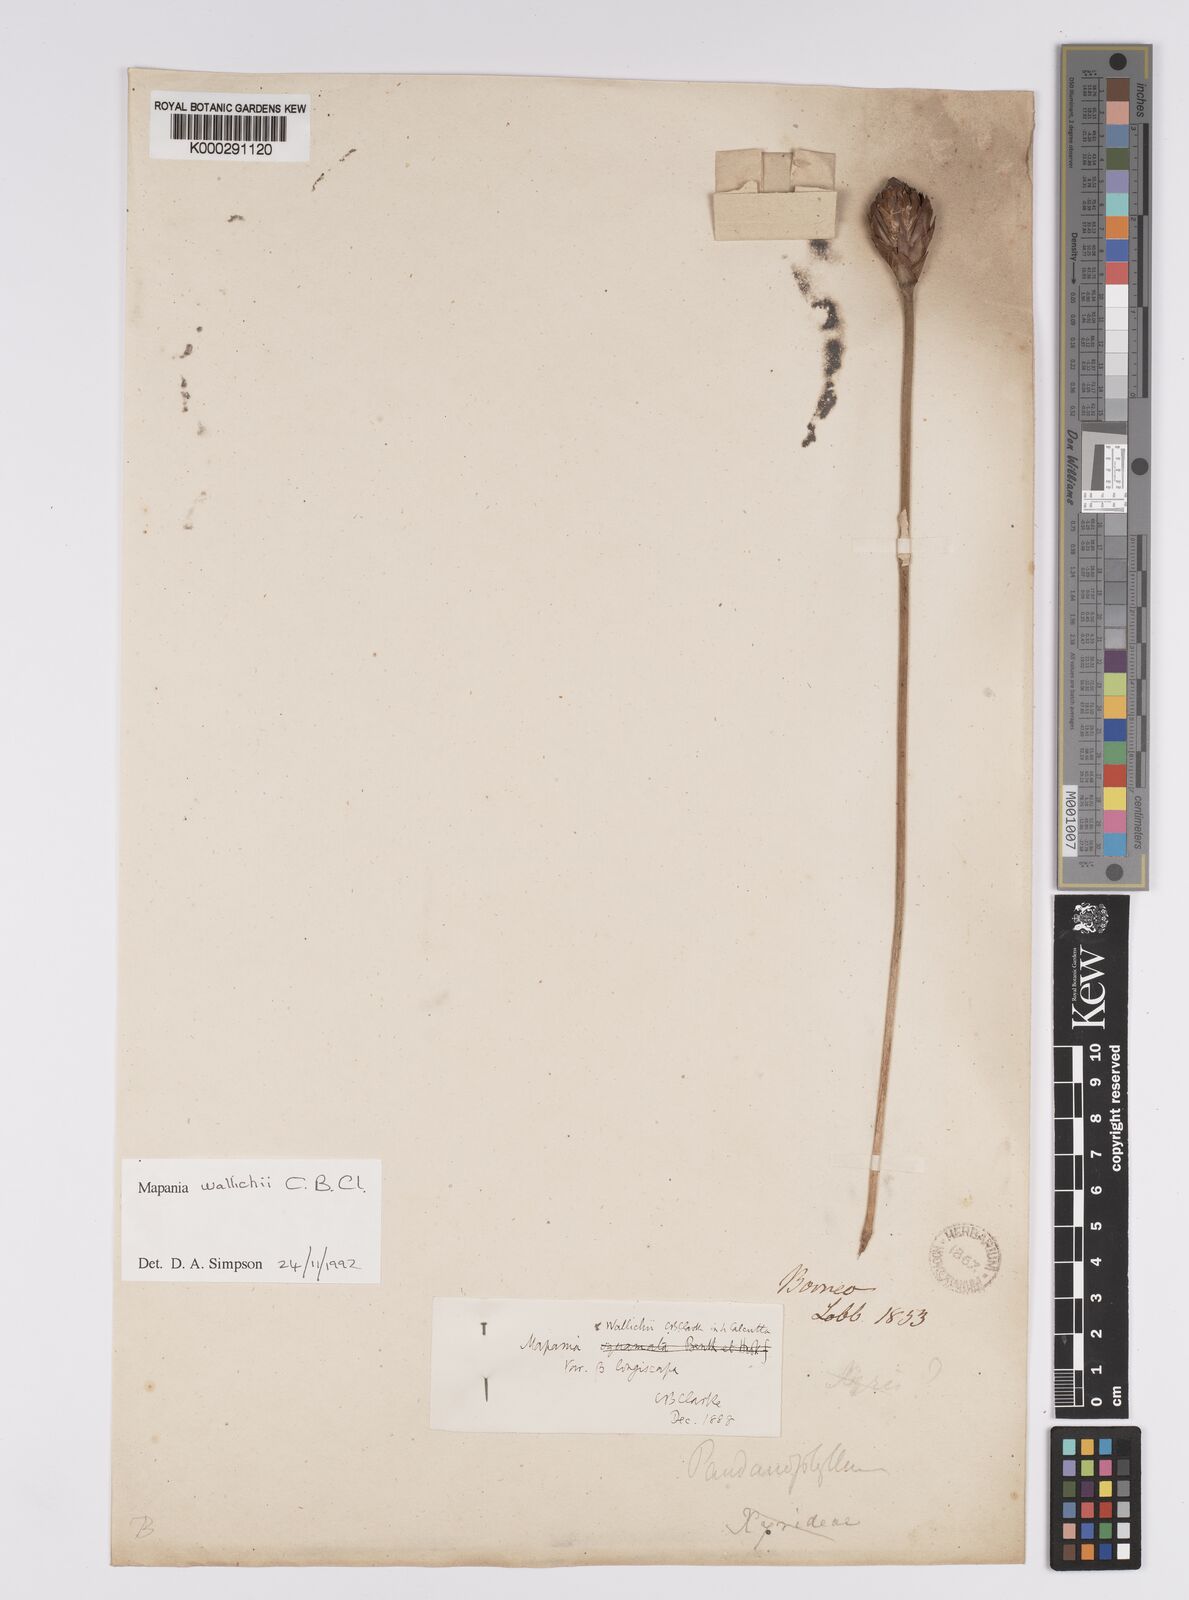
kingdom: Plantae
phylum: Tracheophyta
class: Liliopsida
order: Poales
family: Cyperaceae
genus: Mapania
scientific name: Mapania wallichii
